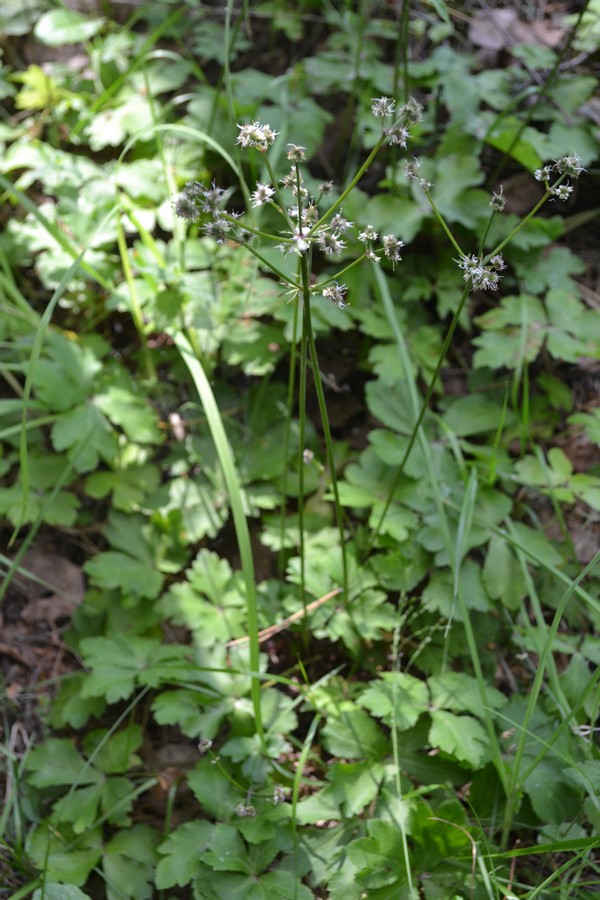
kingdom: Plantae
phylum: Tracheophyta
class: Magnoliopsida
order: Apiales
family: Apiaceae
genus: Sanicula
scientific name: Sanicula europaea
